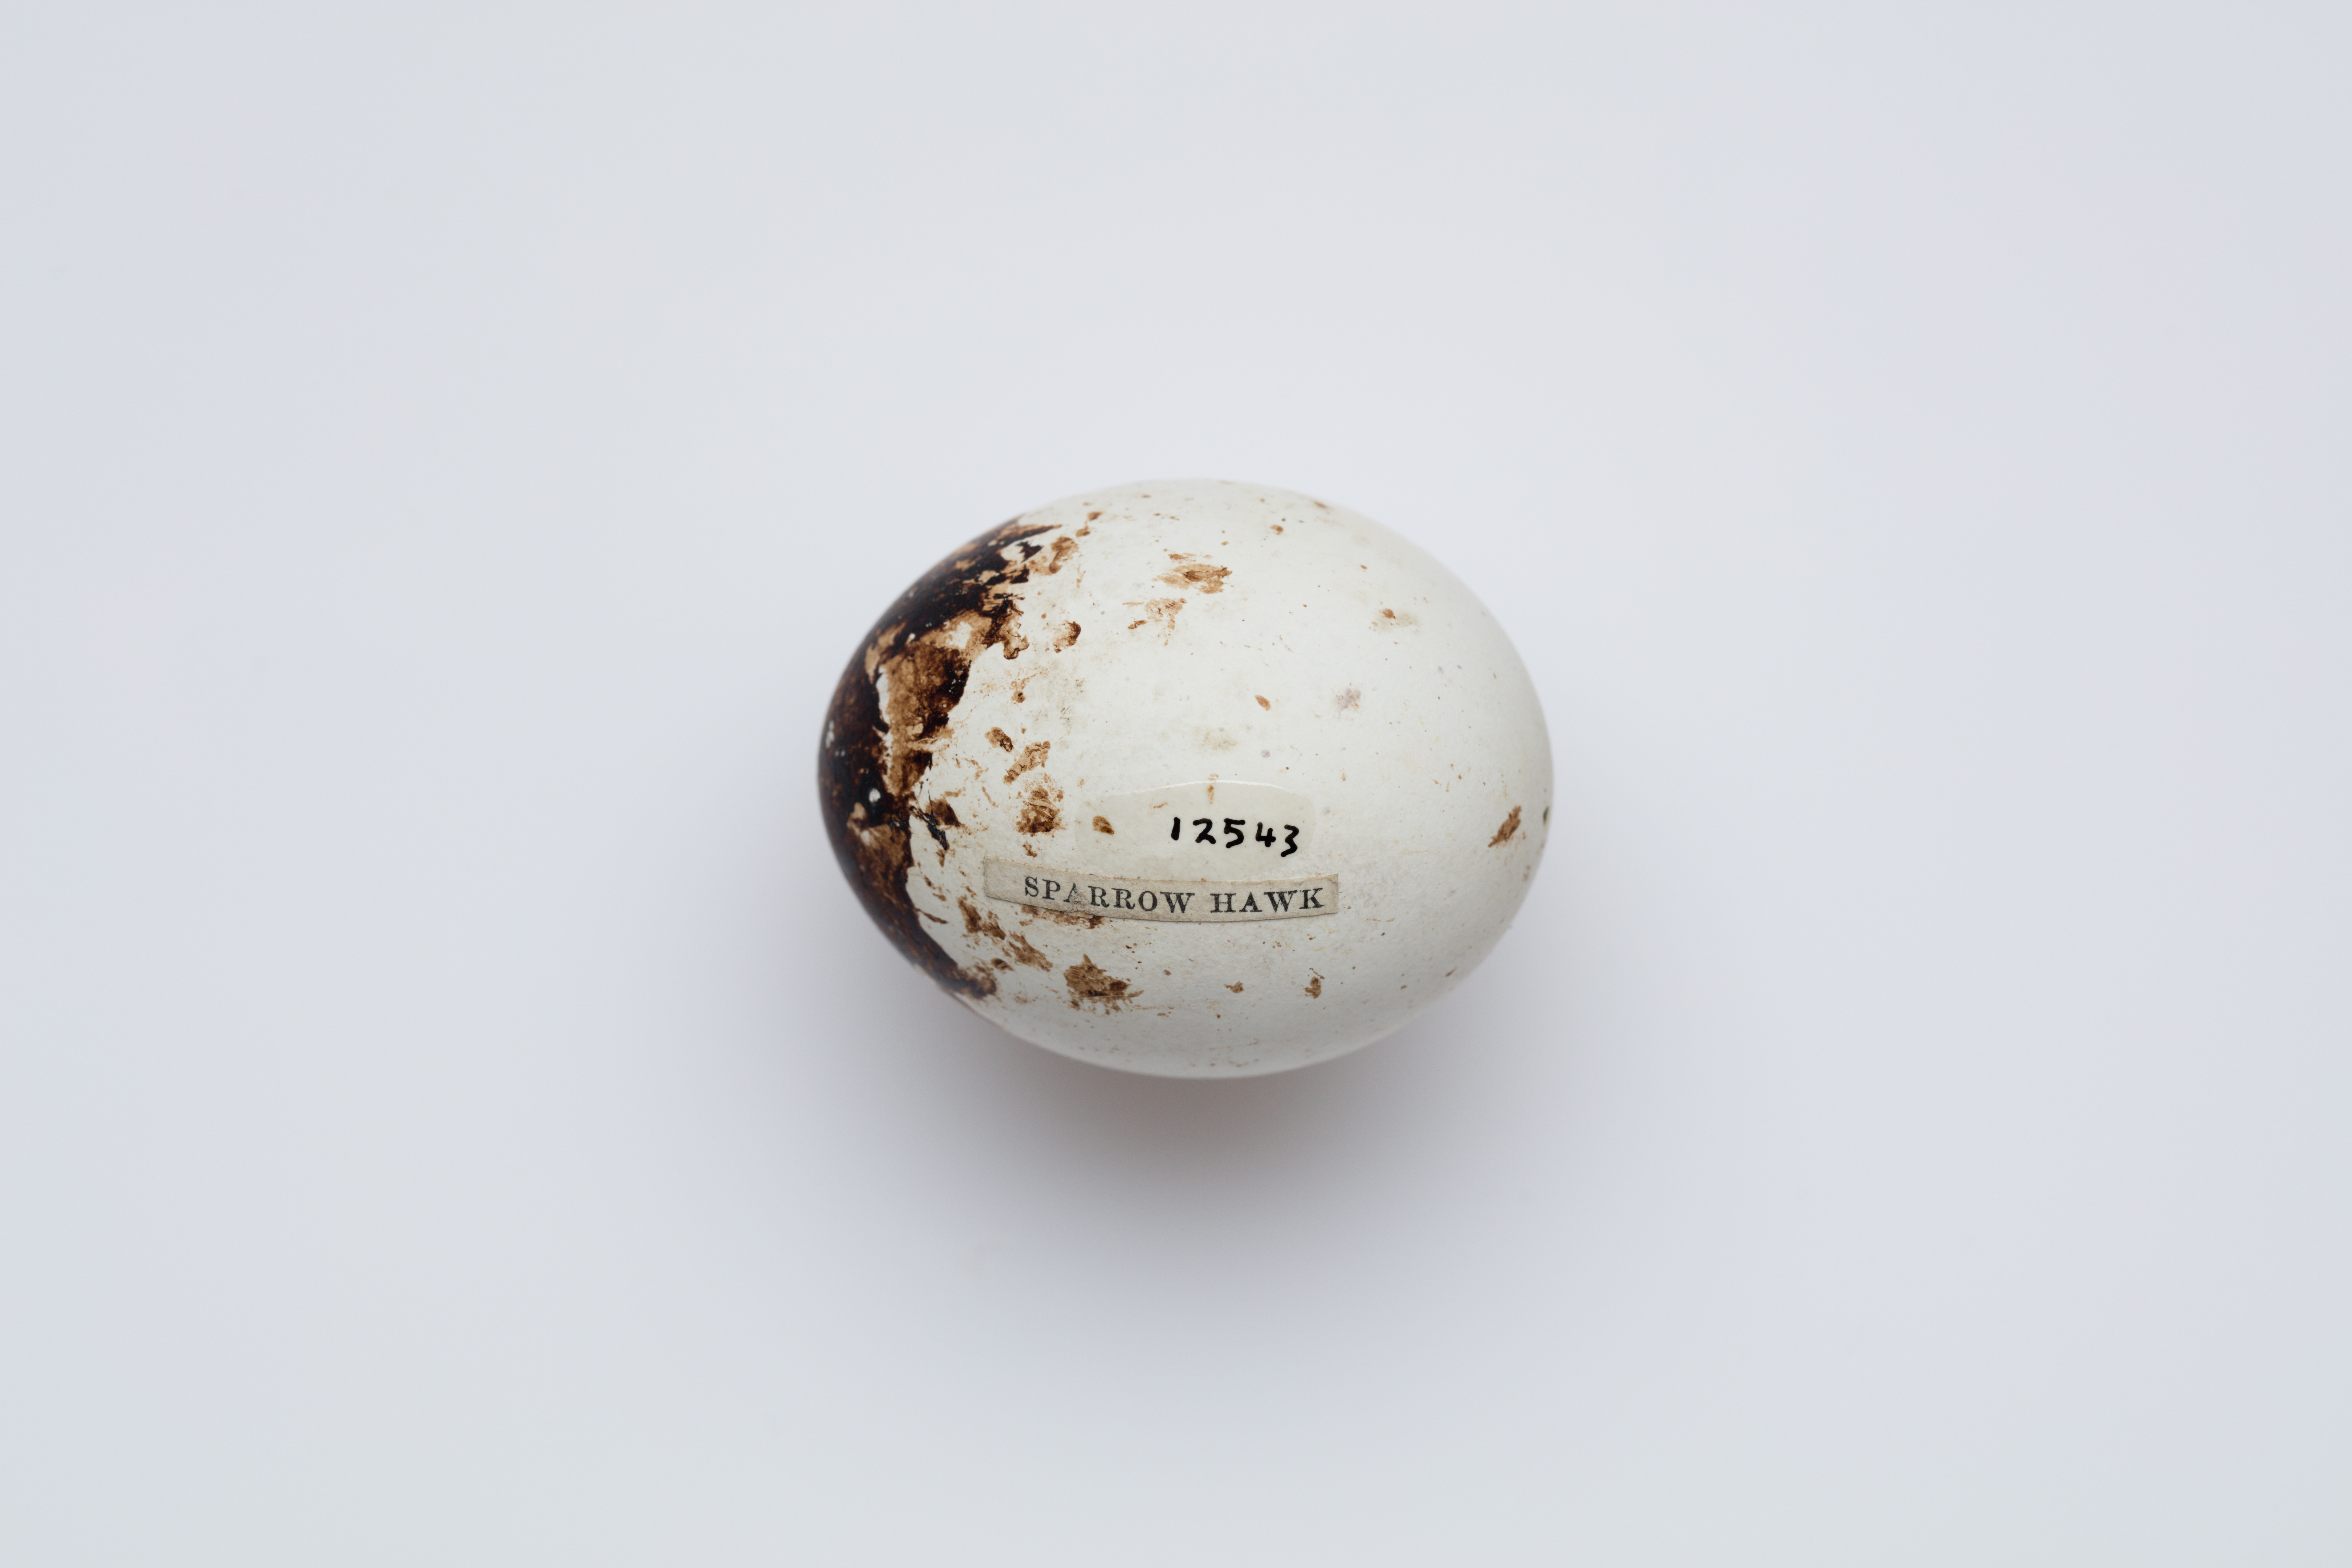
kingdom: Animalia
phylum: Chordata
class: Aves
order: Accipitriformes
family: Accipitridae
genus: Accipiter
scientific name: Accipiter cirrocephalus
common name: Collared sparrowhawk
